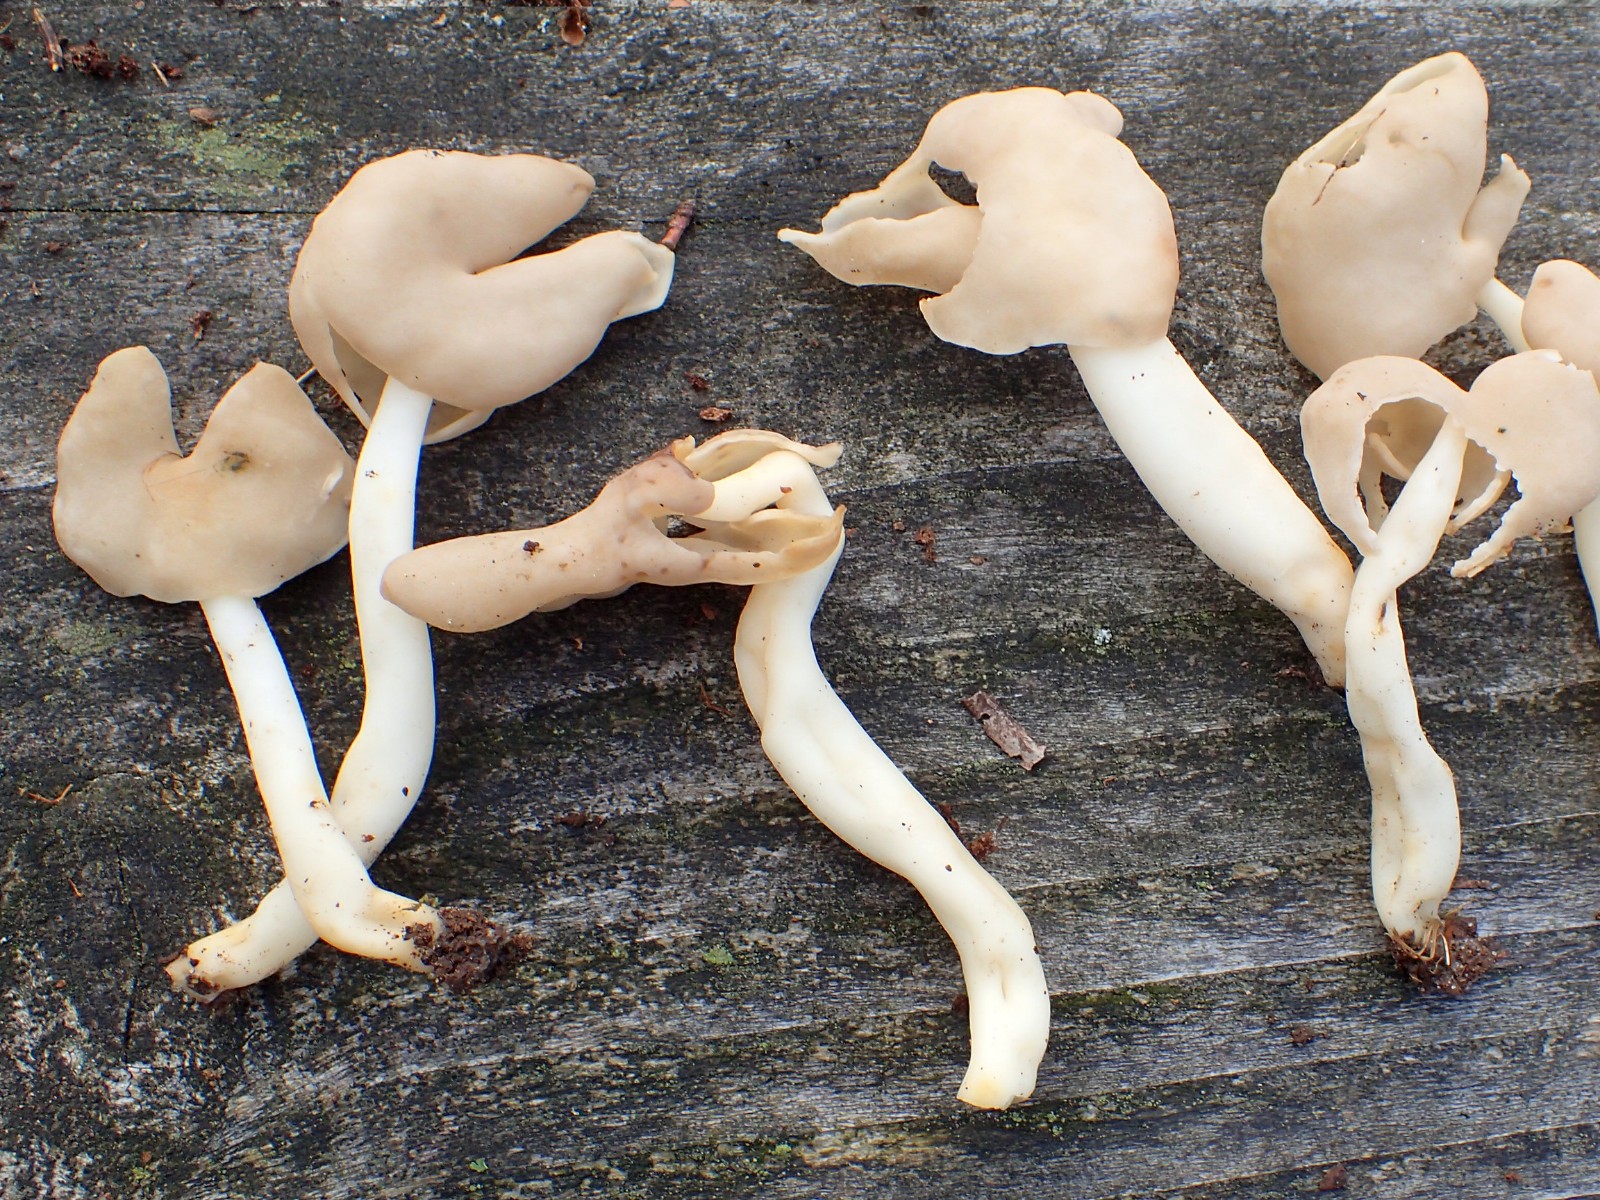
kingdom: Fungi
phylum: Ascomycota
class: Pezizomycetes
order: Pezizales
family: Helvellaceae
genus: Helvella
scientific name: Helvella elastica
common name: elastik-foldhat
